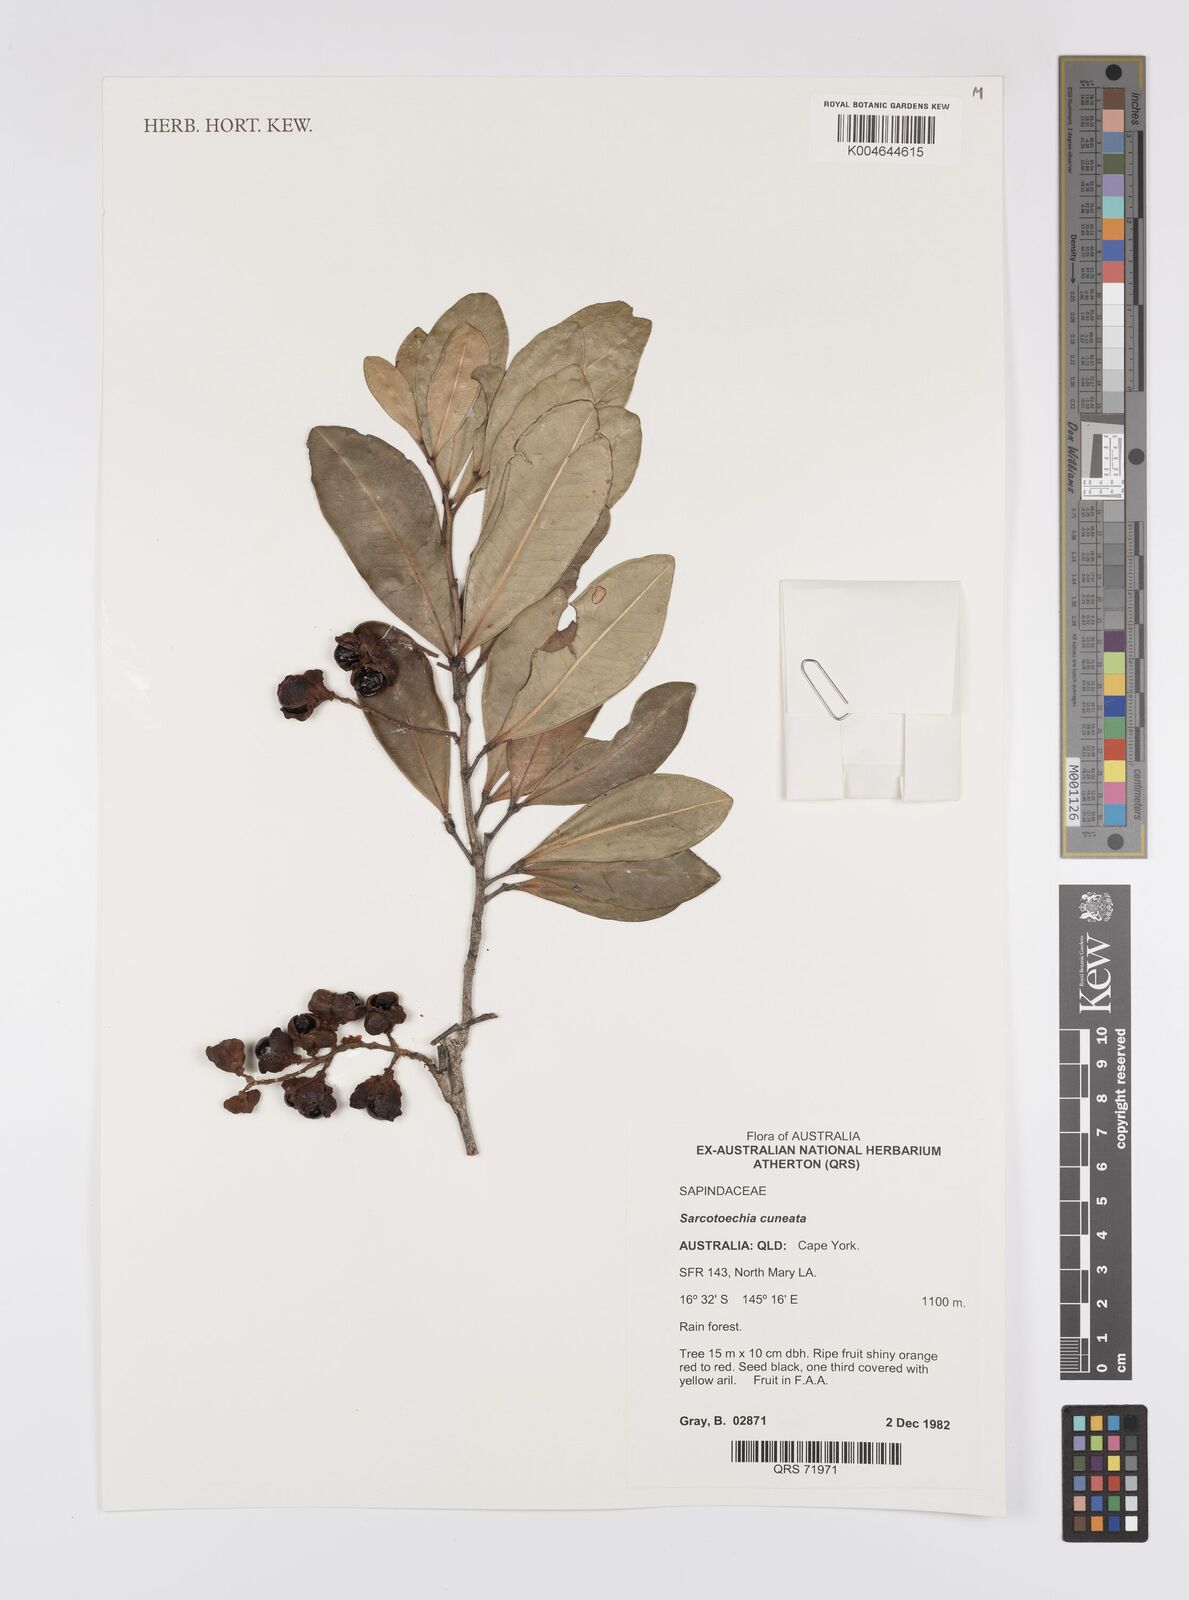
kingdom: Plantae
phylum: Tracheophyta
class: Magnoliopsida
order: Sapindales
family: Sapindaceae
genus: Sarcotoechia
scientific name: Sarcotoechia cuneata
